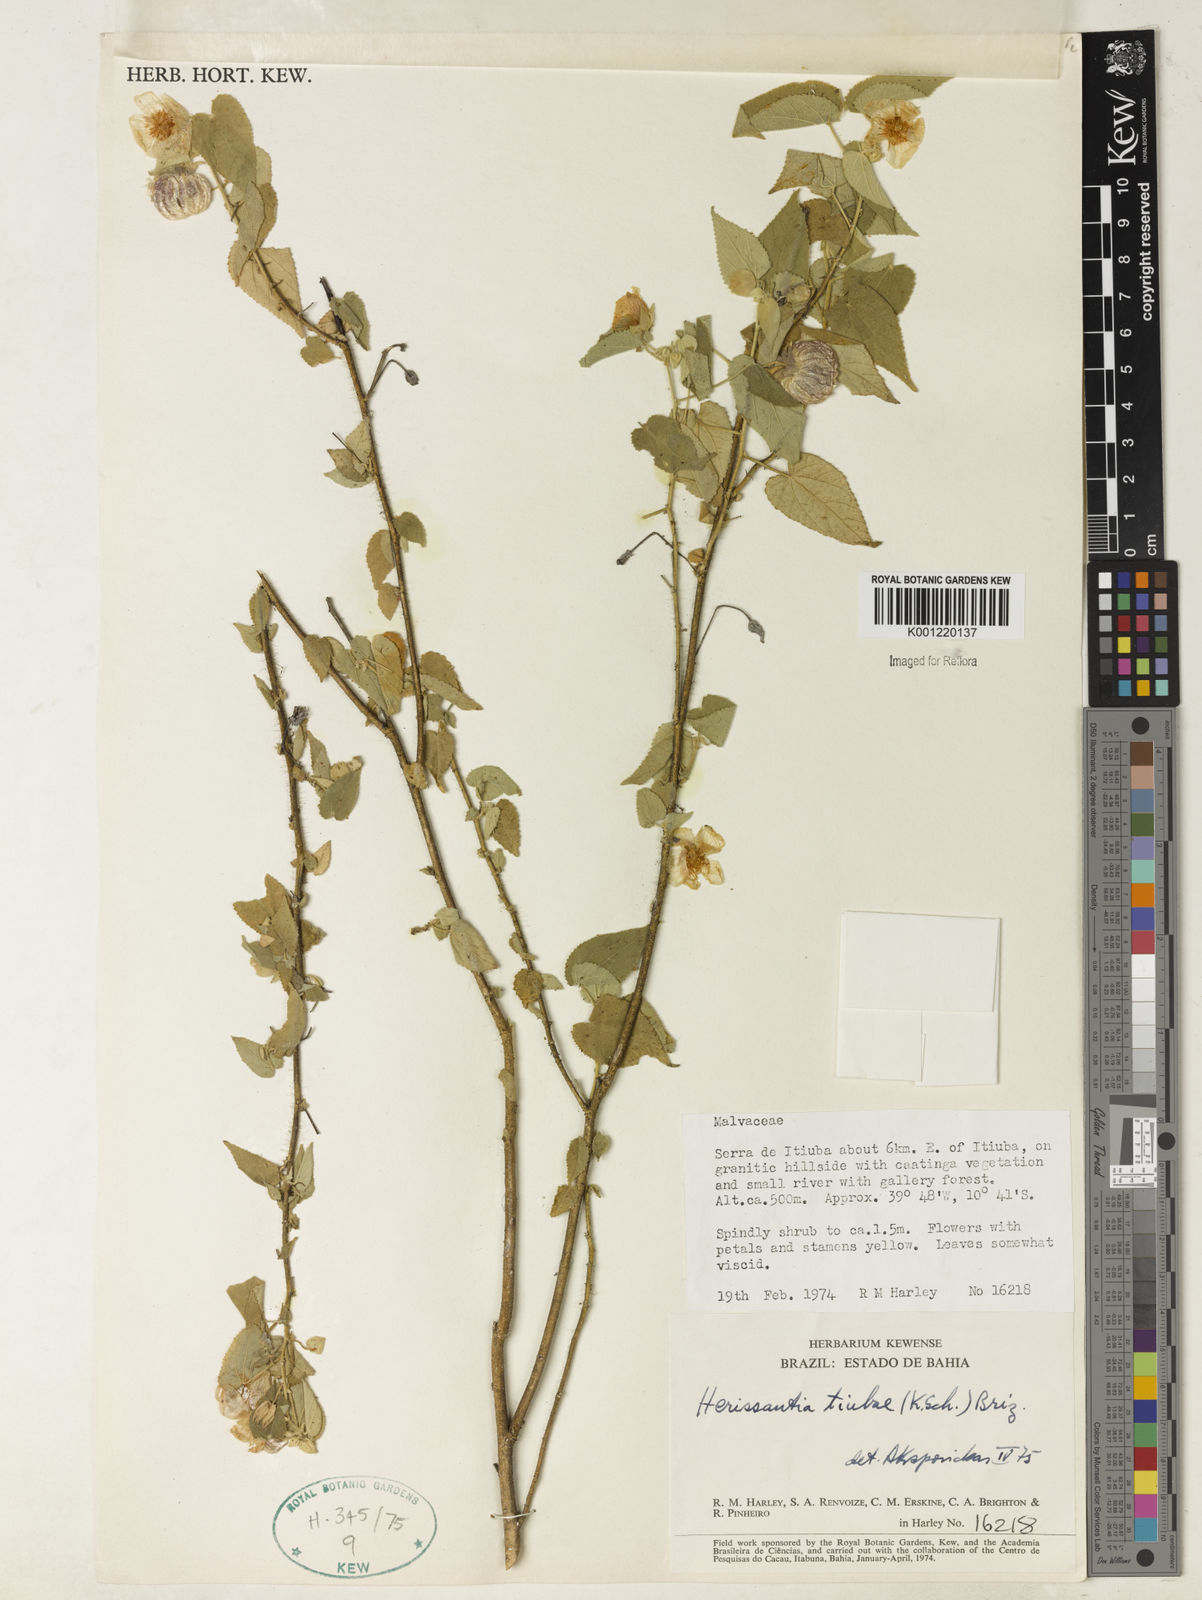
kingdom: Plantae
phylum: Tracheophyta
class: Magnoliopsida
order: Malvales
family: Malvaceae
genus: Herissantia
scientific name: Herissantia tiubae
